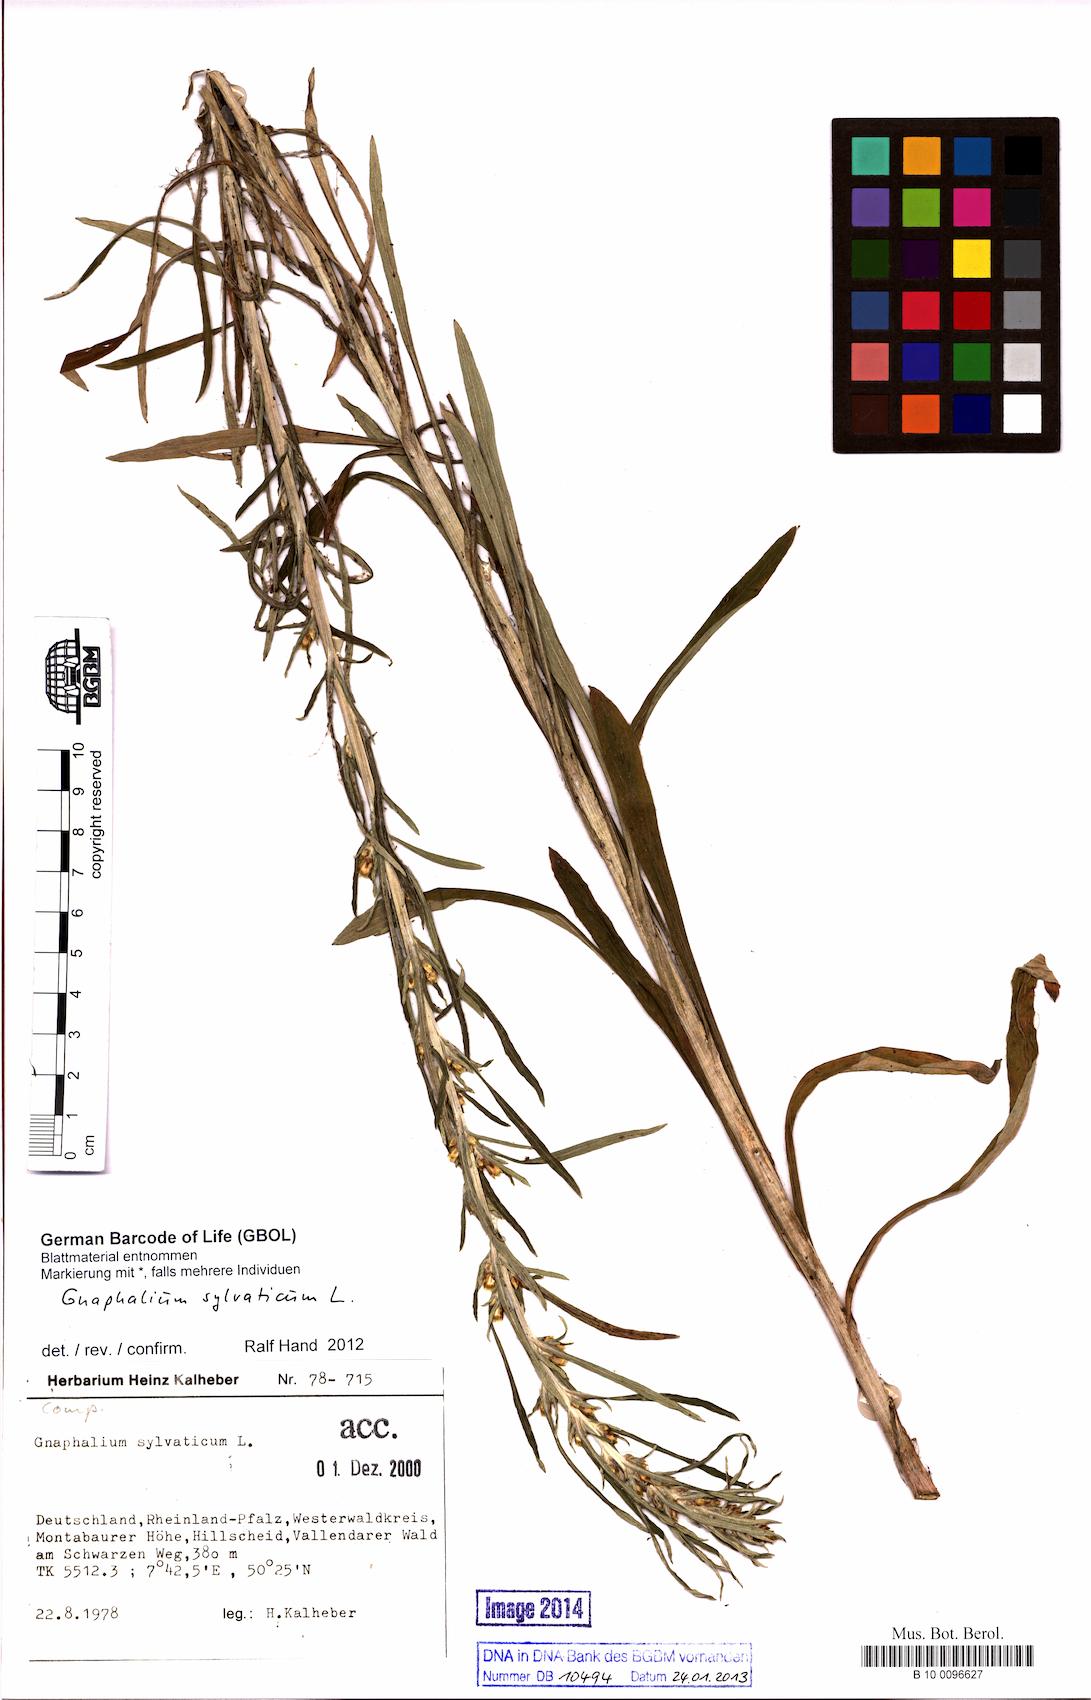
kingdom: Plantae
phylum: Tracheophyta
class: Magnoliopsida
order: Asterales
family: Asteraceae
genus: Omalotheca
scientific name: Omalotheca sylvatica
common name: Heath cudweed
